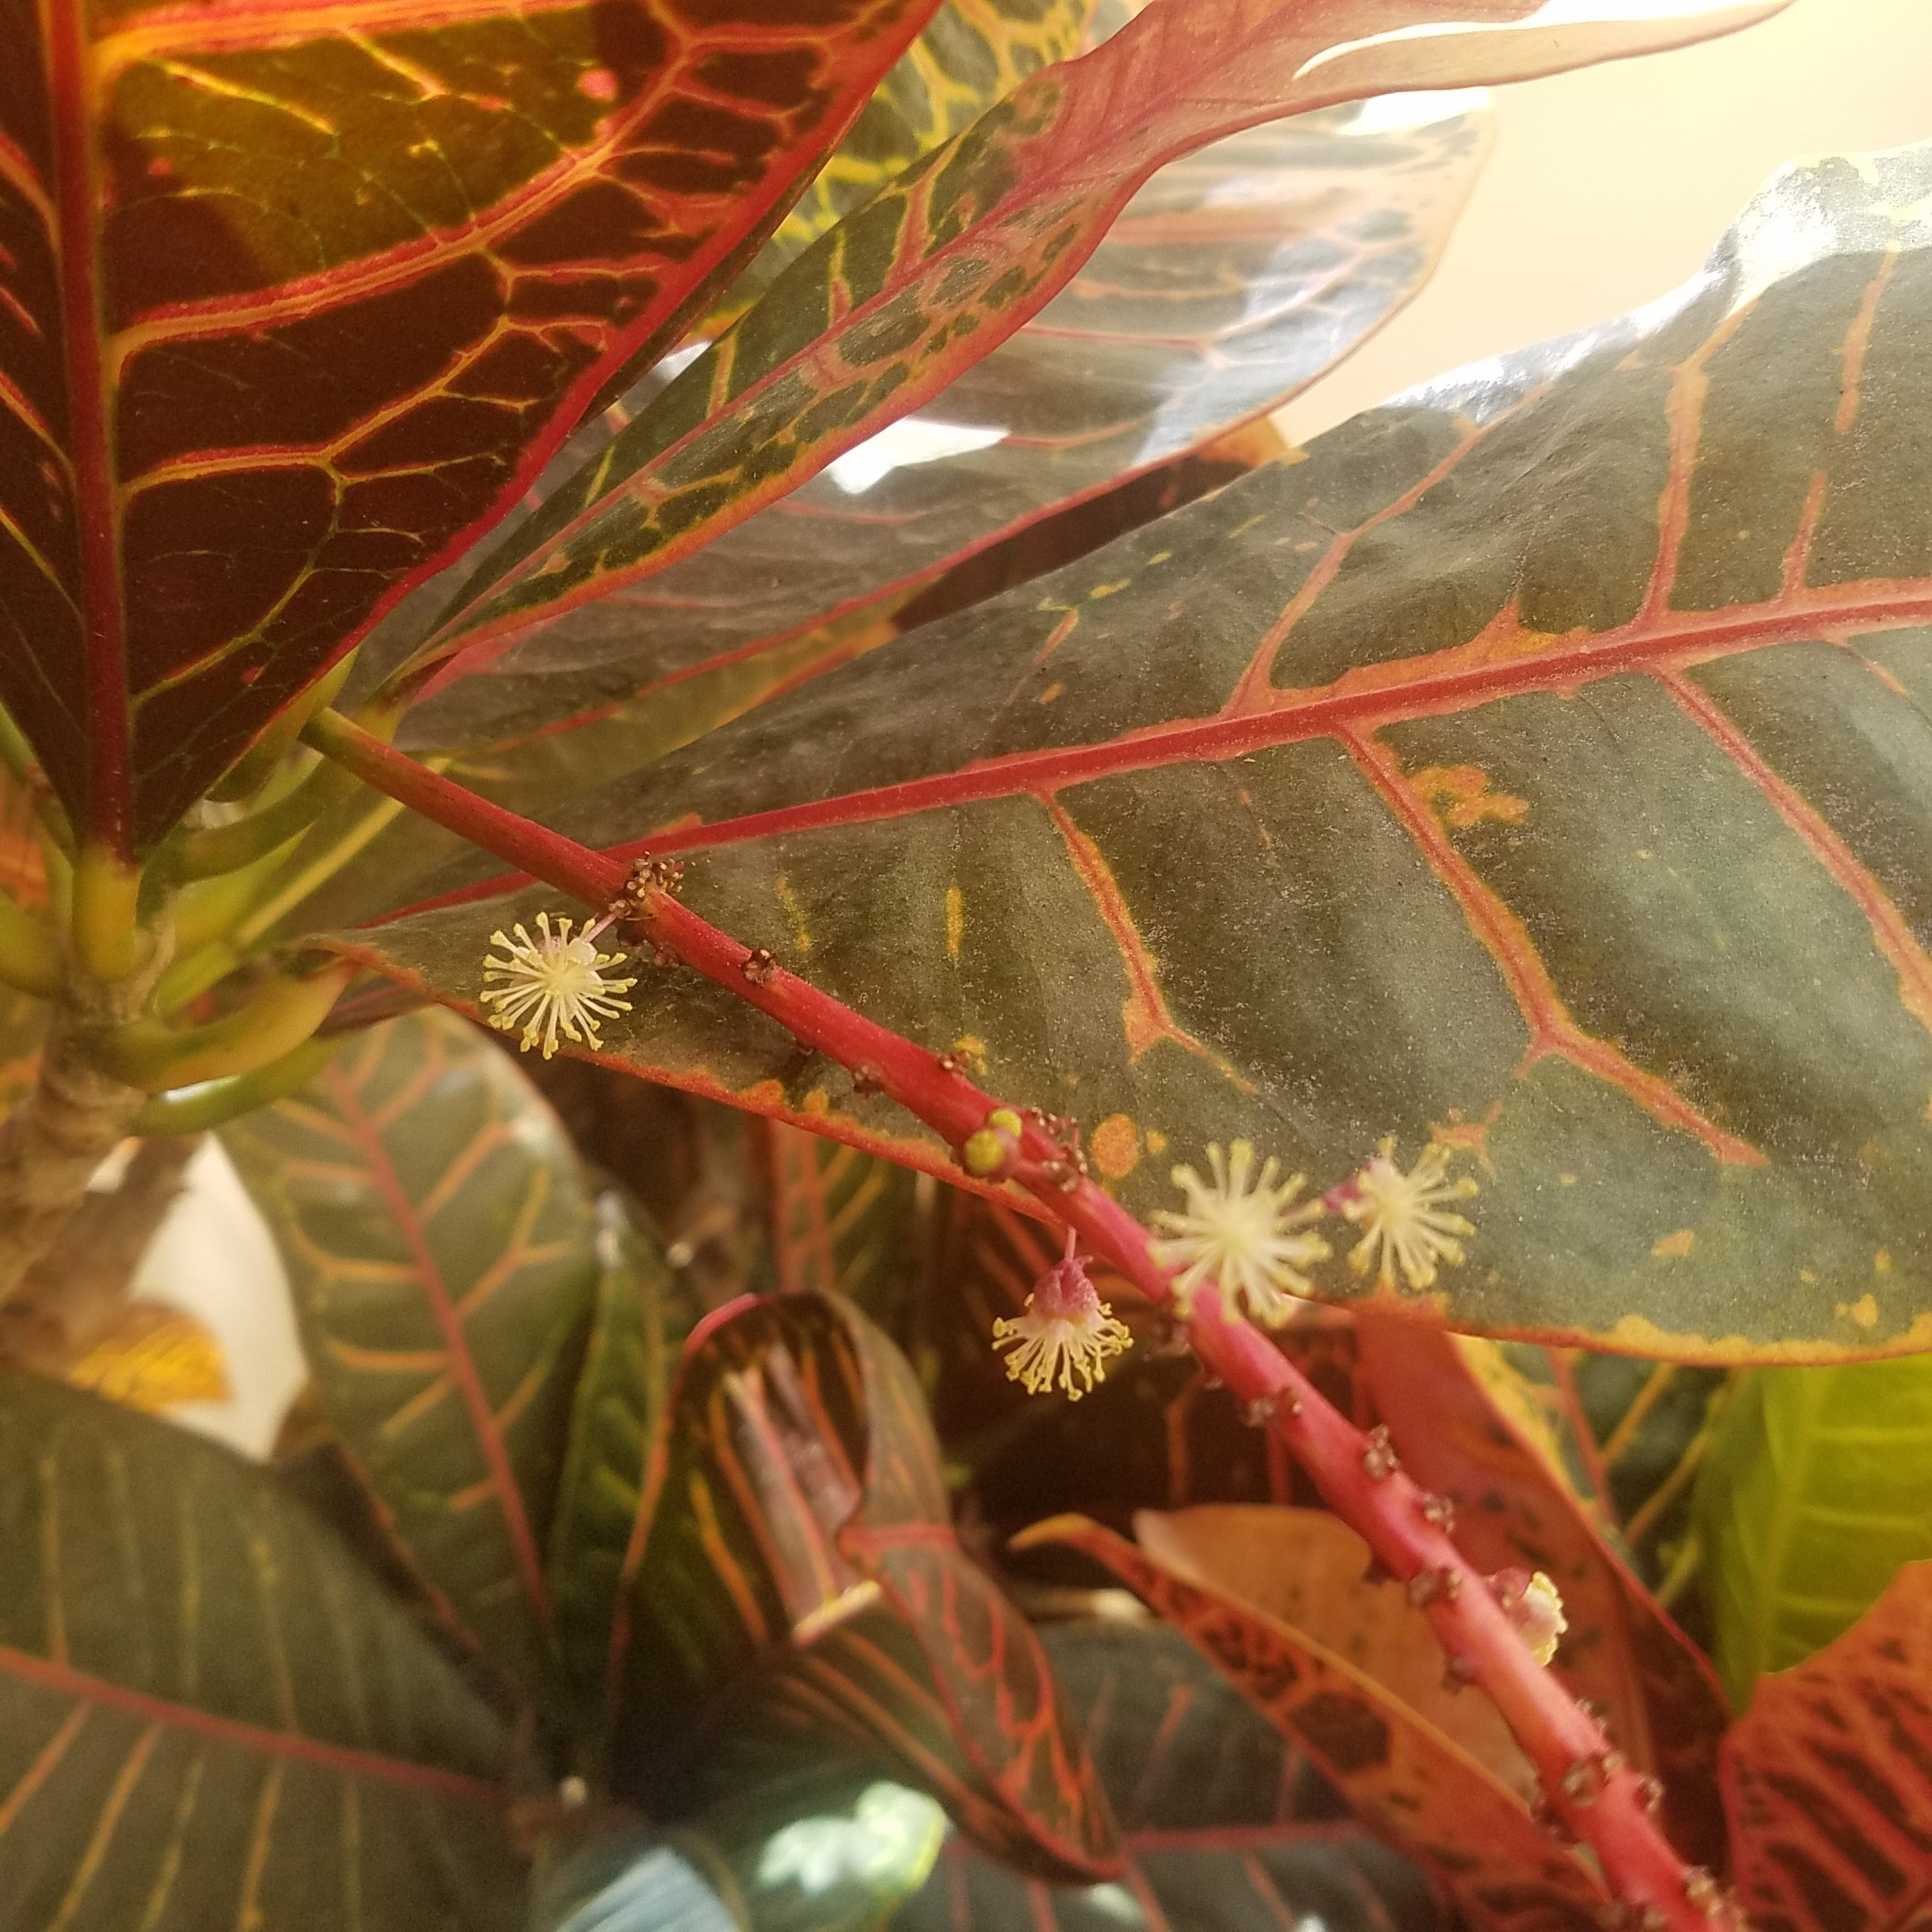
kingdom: Plantae
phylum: Tracheophyta
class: Magnoliopsida
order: Malpighiales
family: Euphorbiaceae
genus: Codiaeum
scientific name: Codiaeum variegatum
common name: croton
